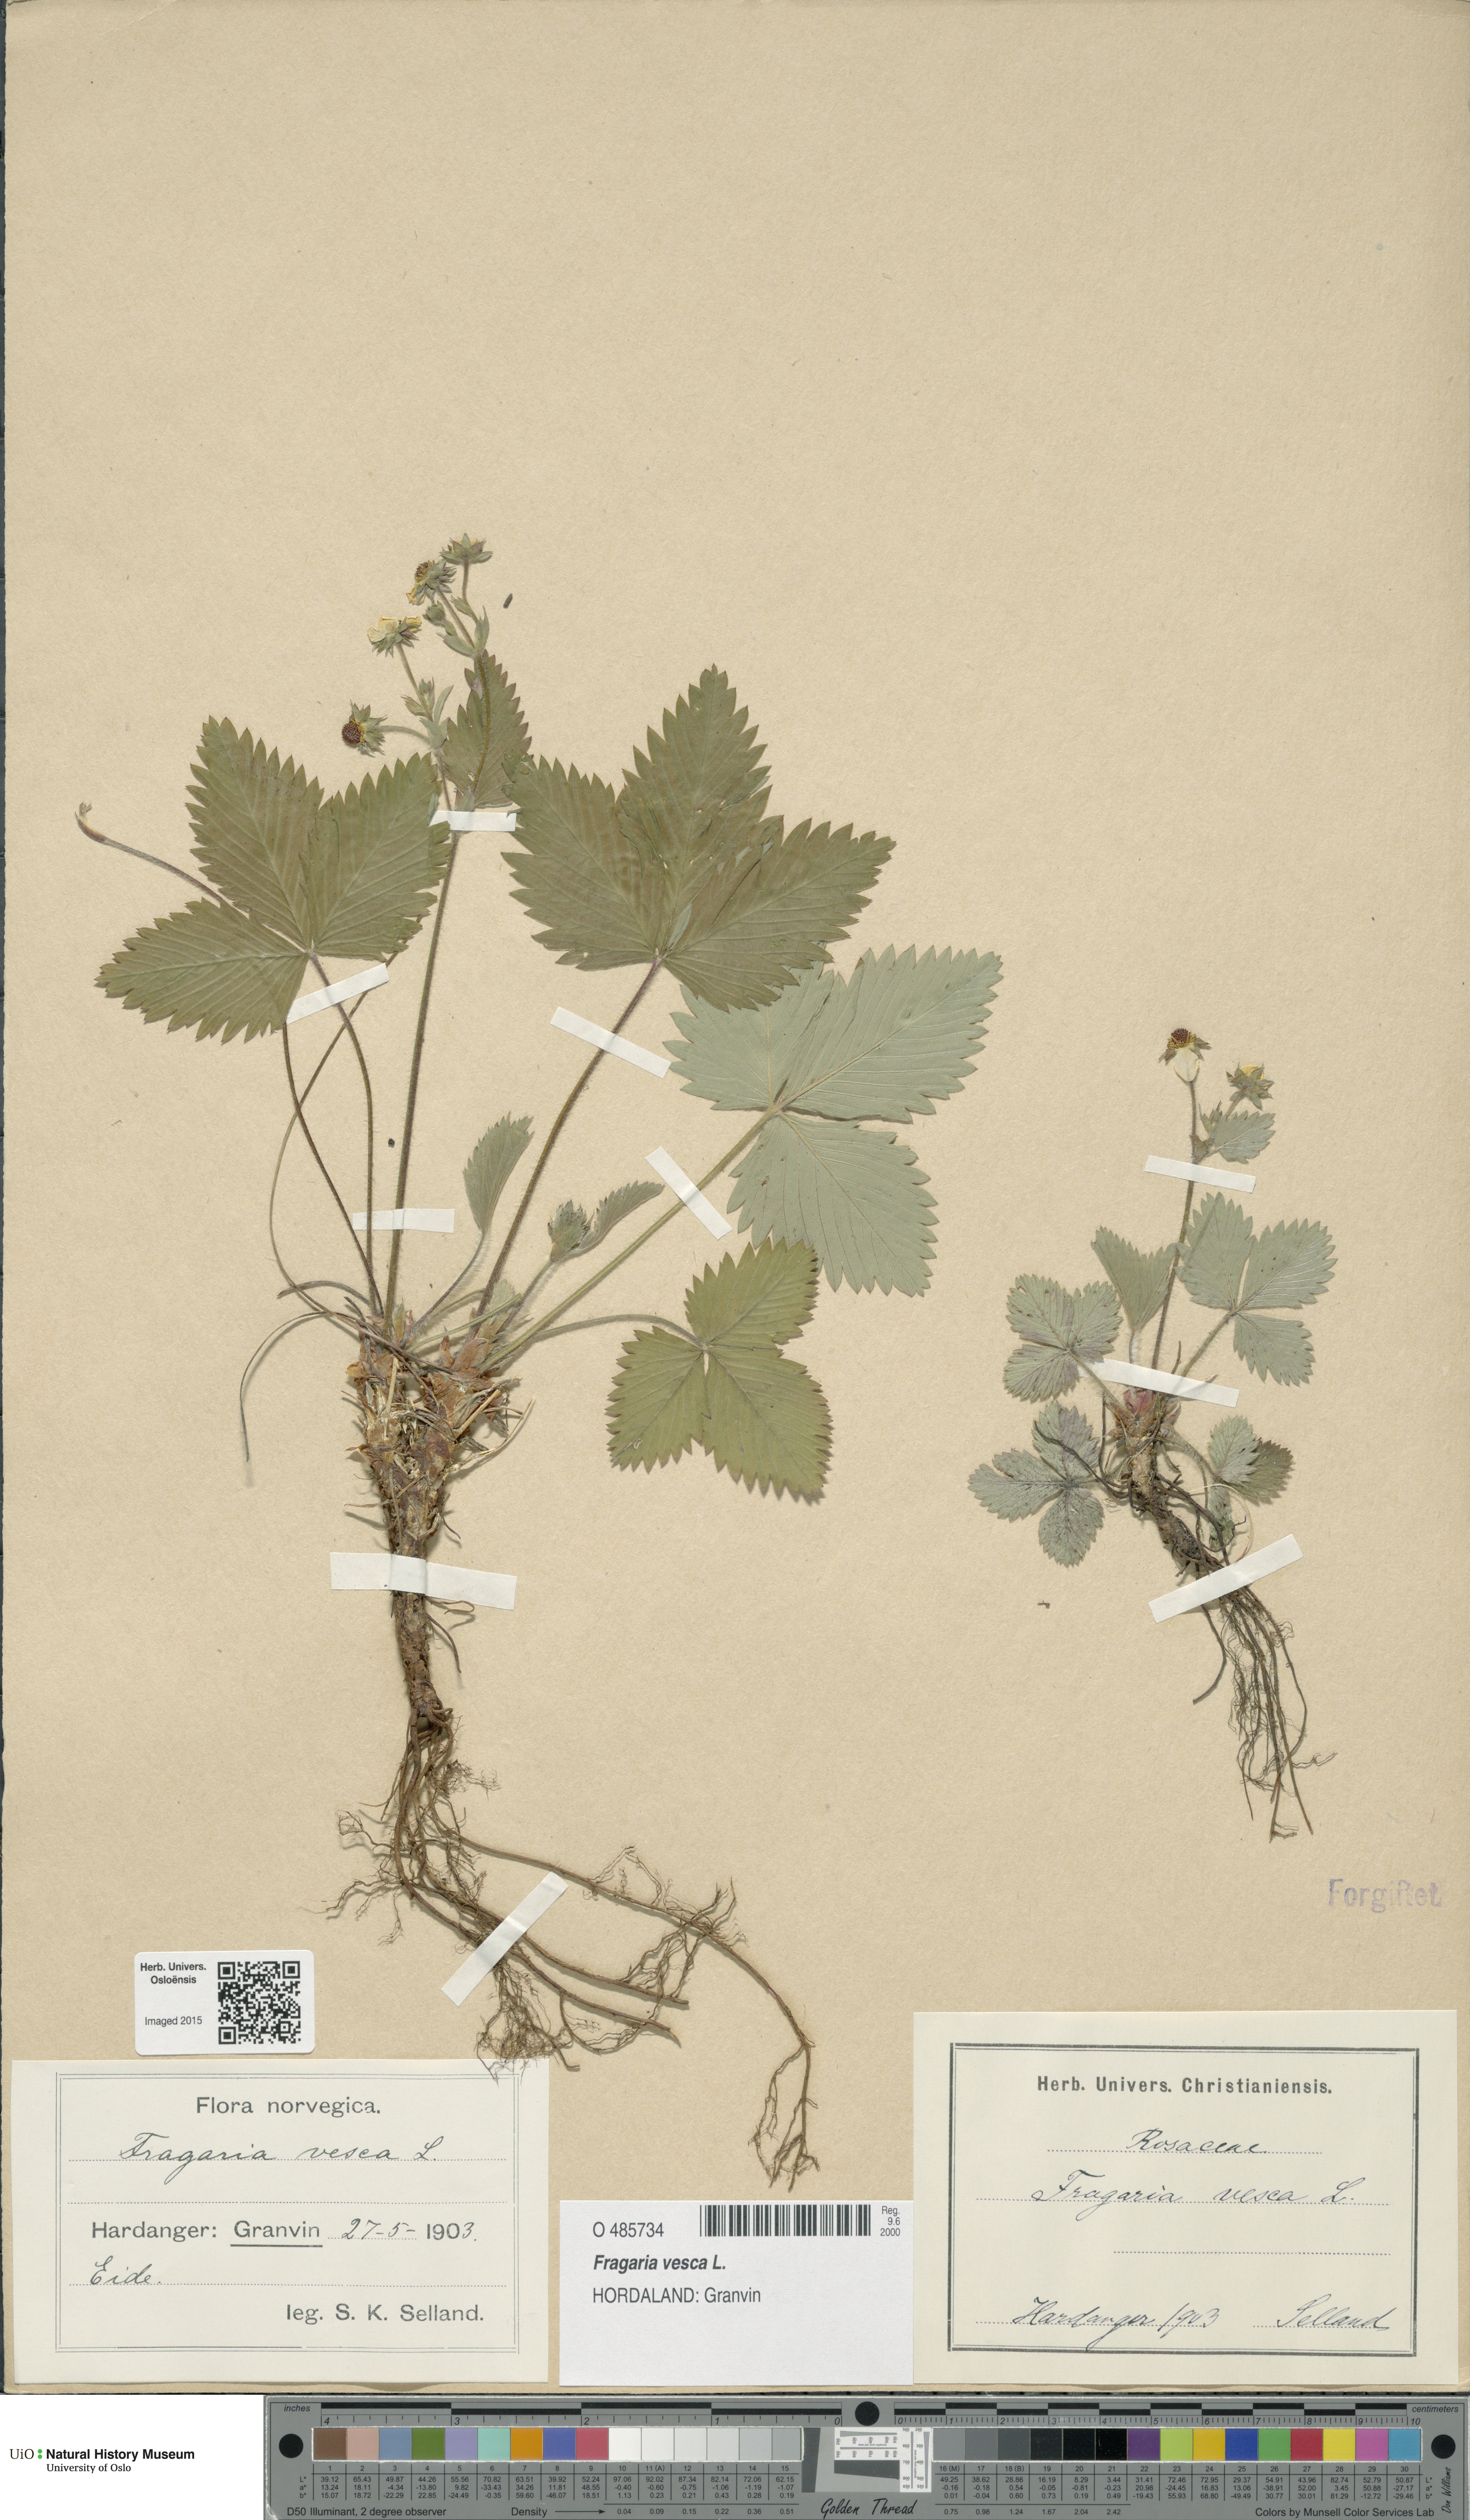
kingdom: Plantae
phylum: Tracheophyta
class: Magnoliopsida
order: Rosales
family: Rosaceae
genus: Fragaria
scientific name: Fragaria vesca
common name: Wild strawberry
